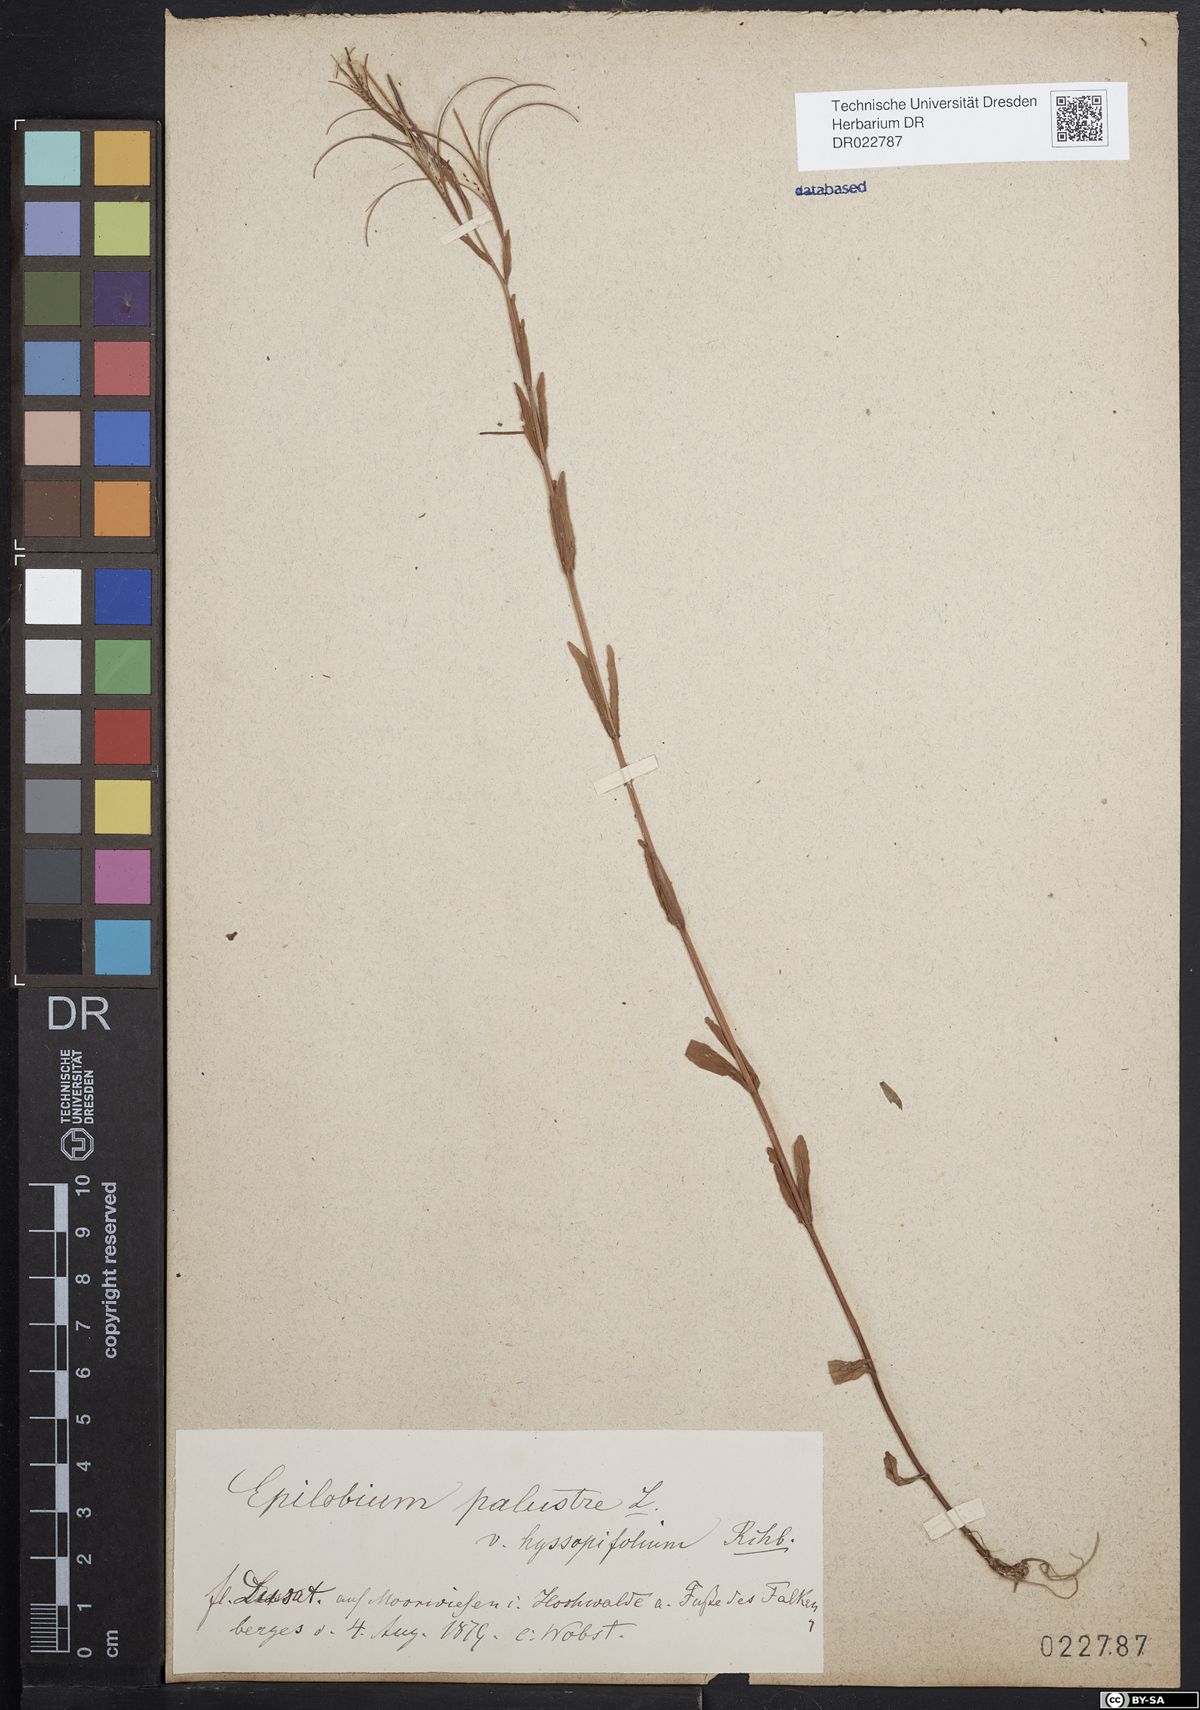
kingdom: Plantae
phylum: Tracheophyta
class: Magnoliopsida
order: Myrtales
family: Onagraceae
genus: Epilobium
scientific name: Epilobium palustre
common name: Marsh willowherb
